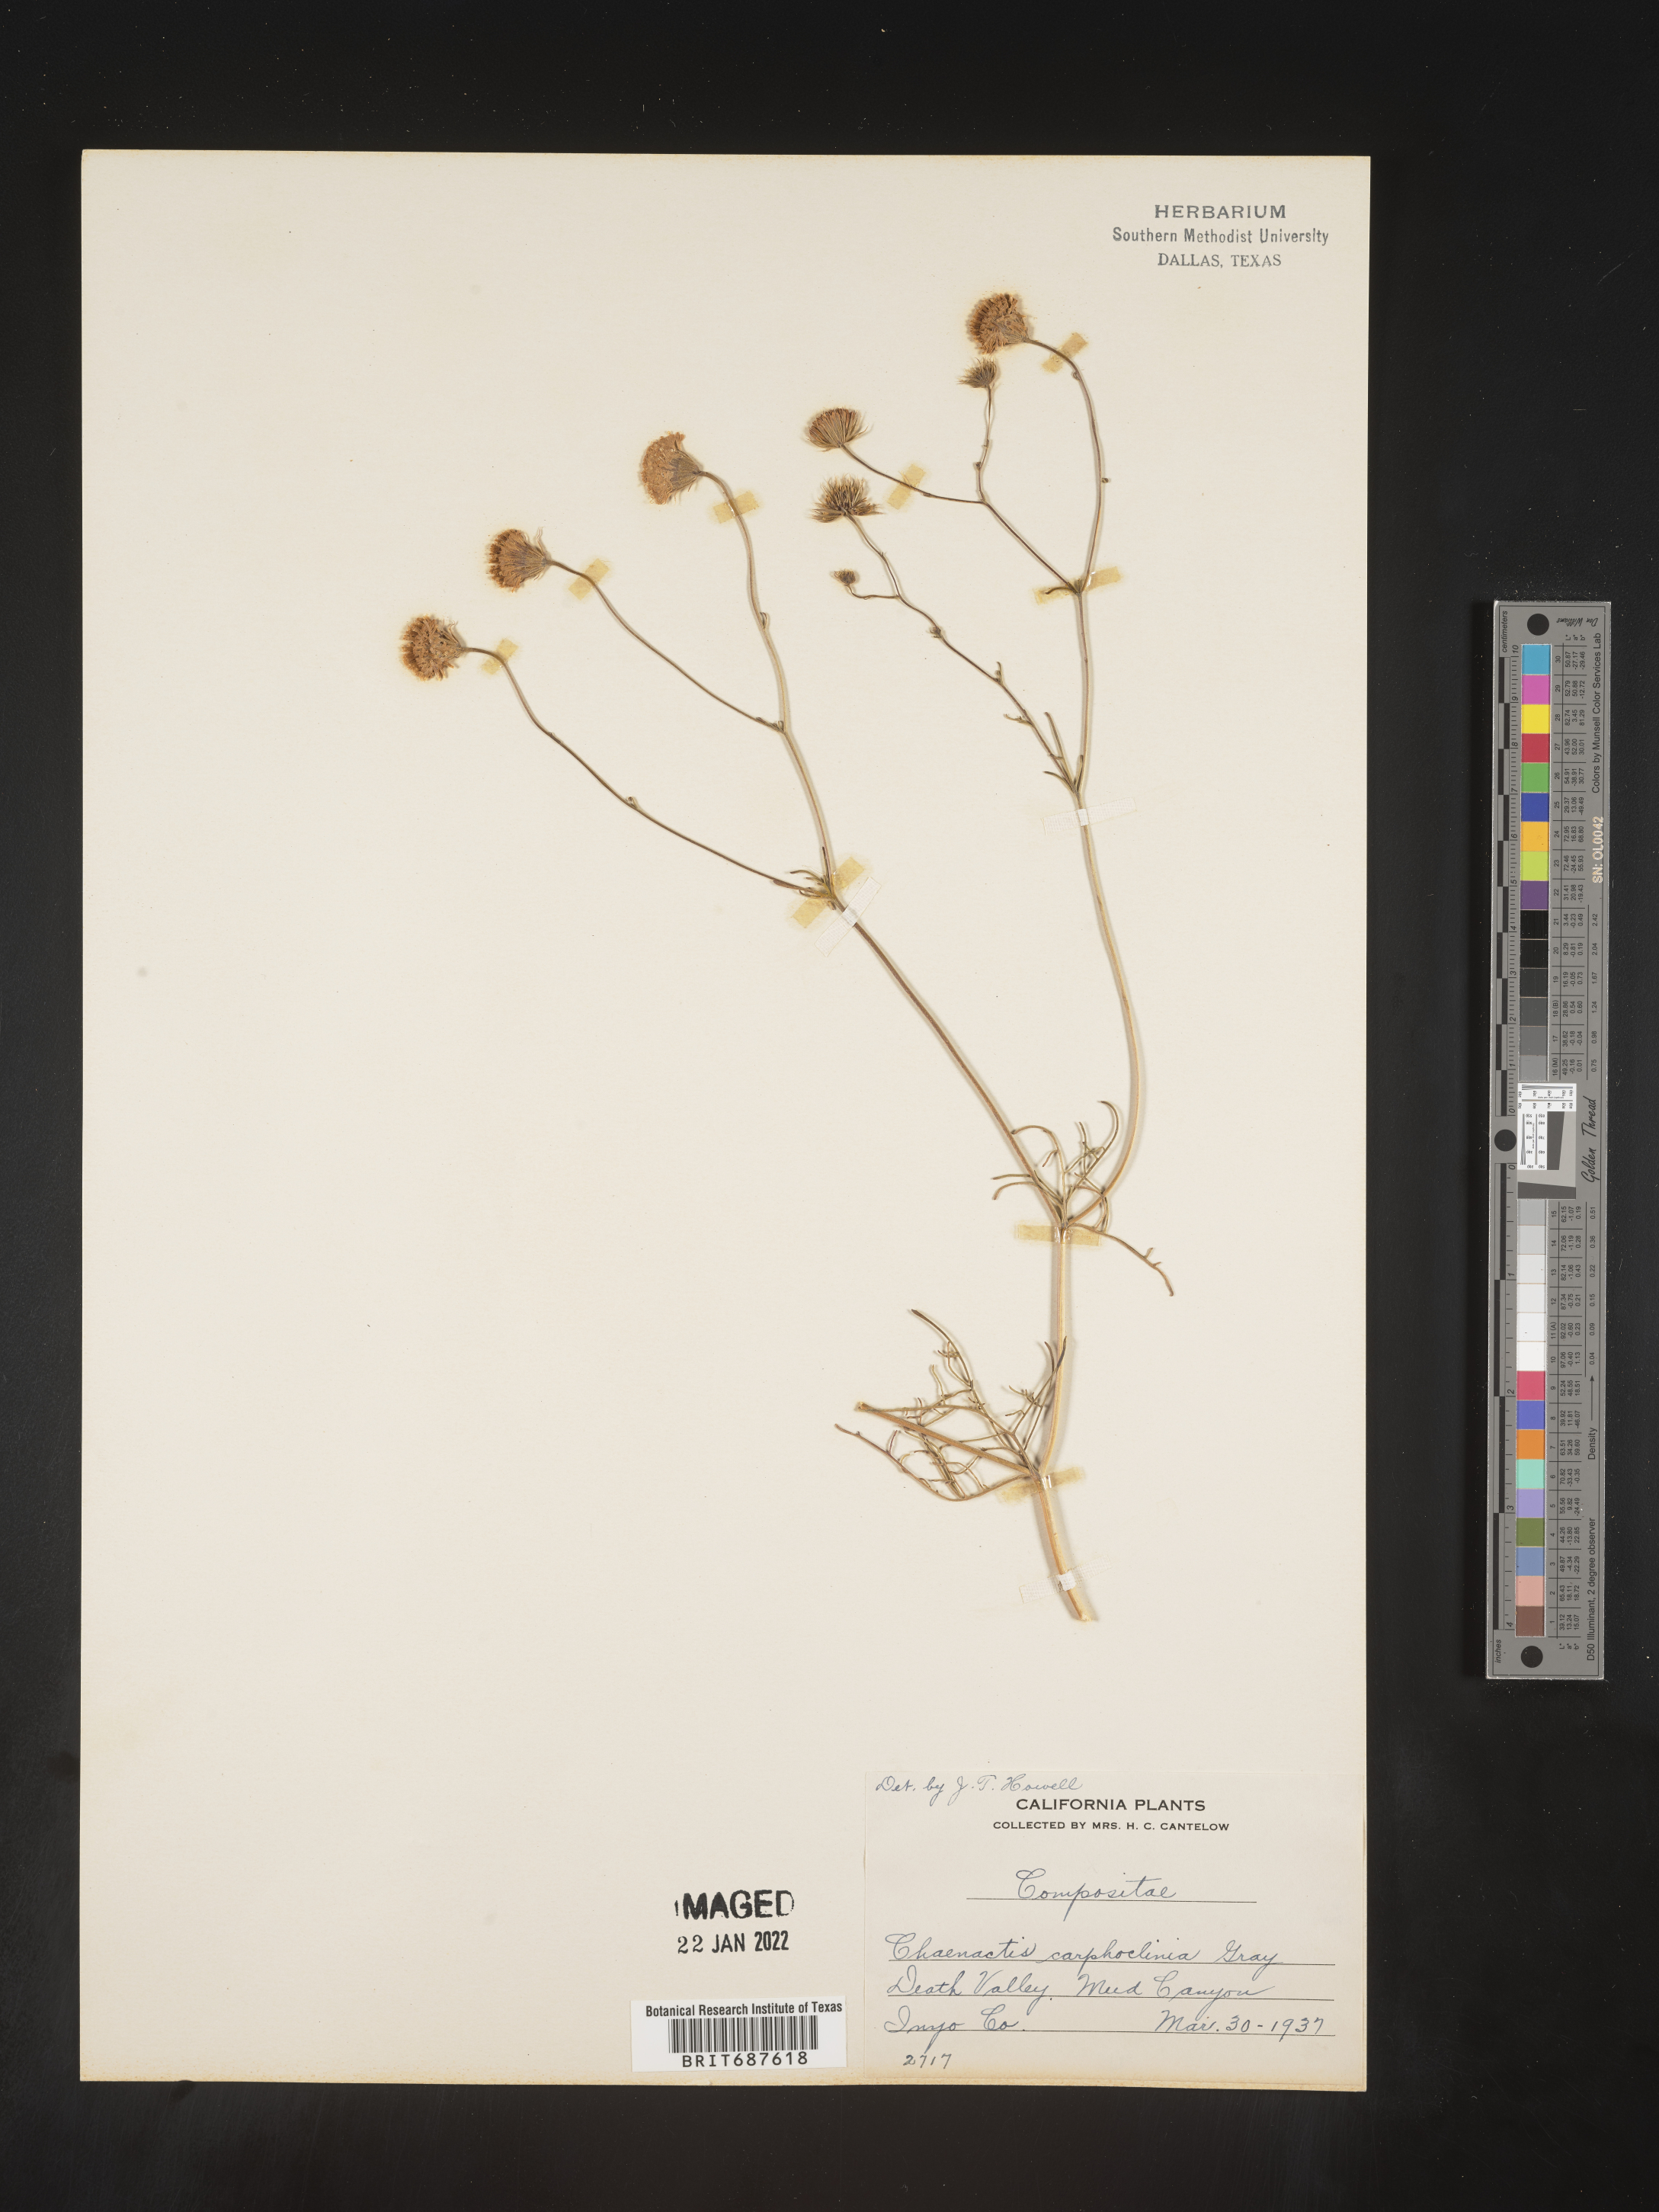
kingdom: Plantae
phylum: Tracheophyta
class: Magnoliopsida
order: Asterales
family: Asteraceae
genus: Chaenactis
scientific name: Chaenactis carphoclinia
